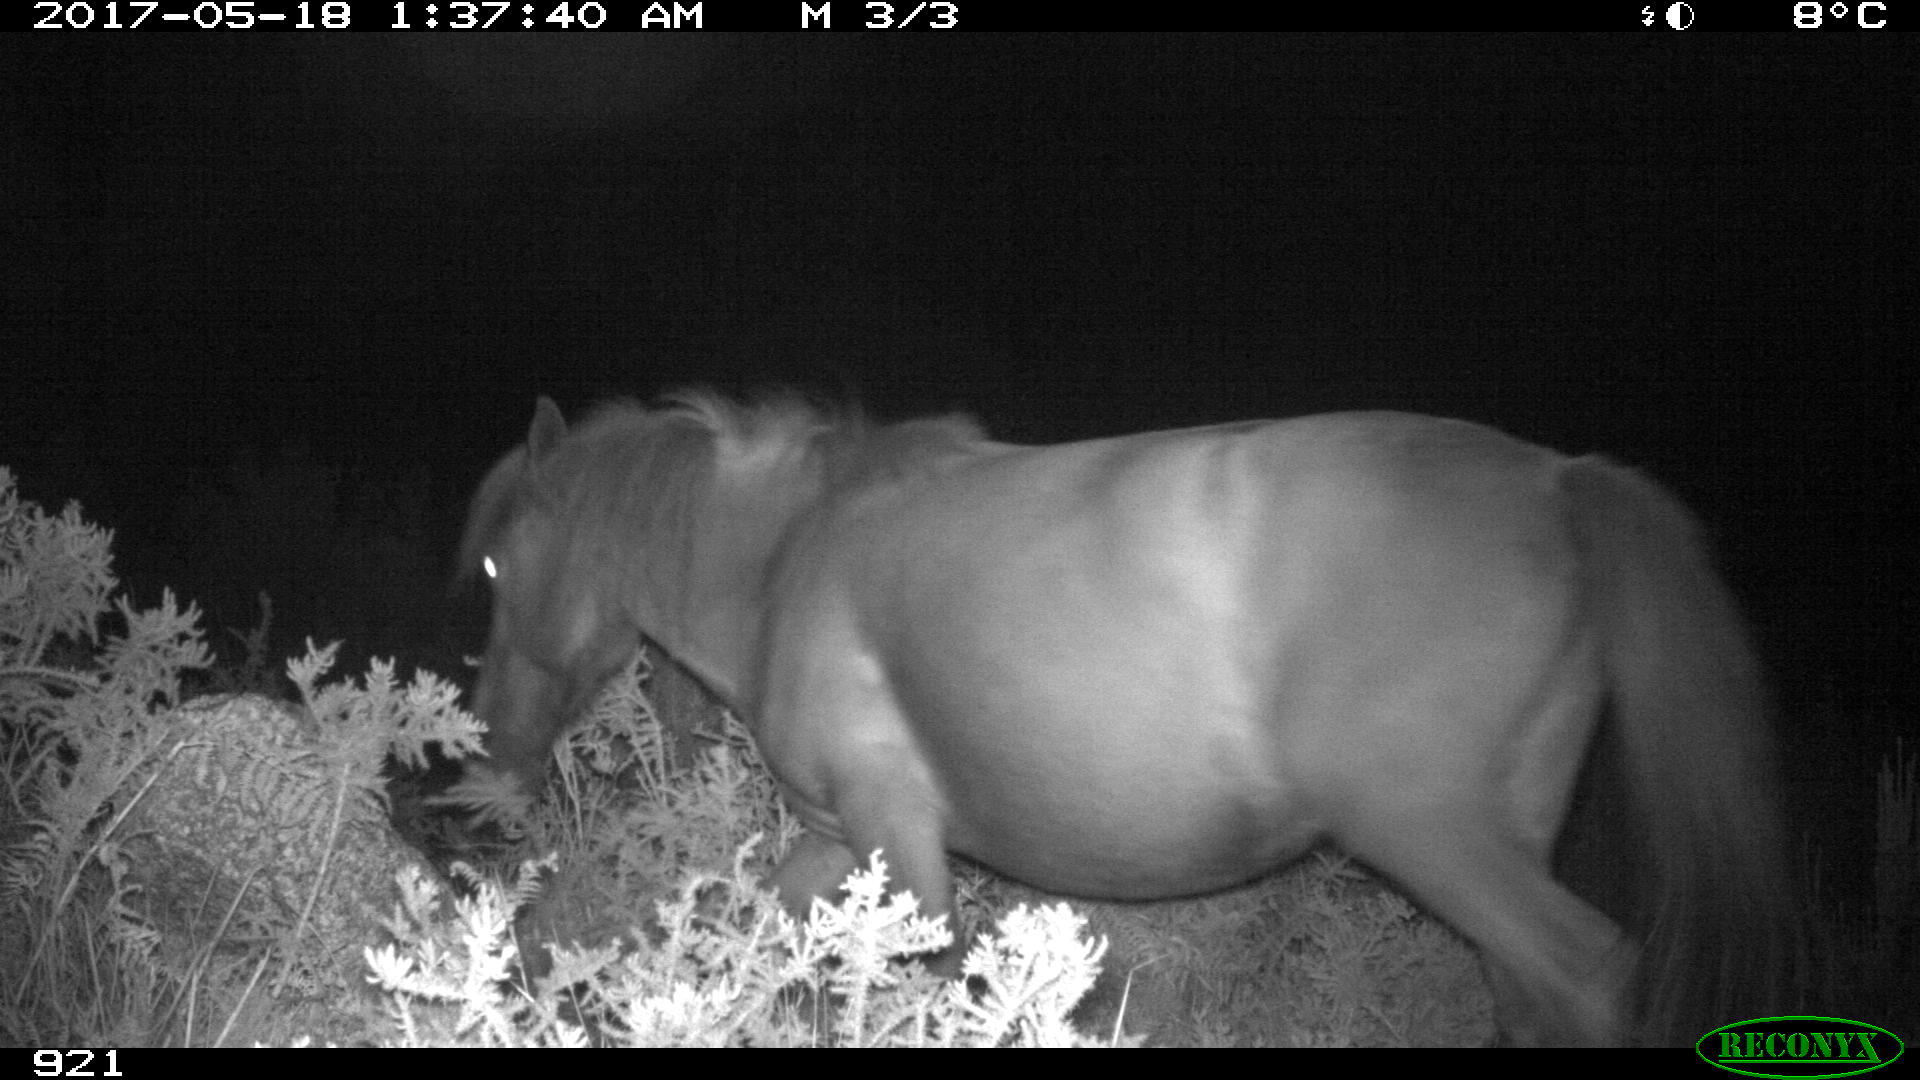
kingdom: Animalia
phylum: Chordata
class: Mammalia
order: Perissodactyla
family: Equidae
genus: Equus
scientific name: Equus caballus
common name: Horse
